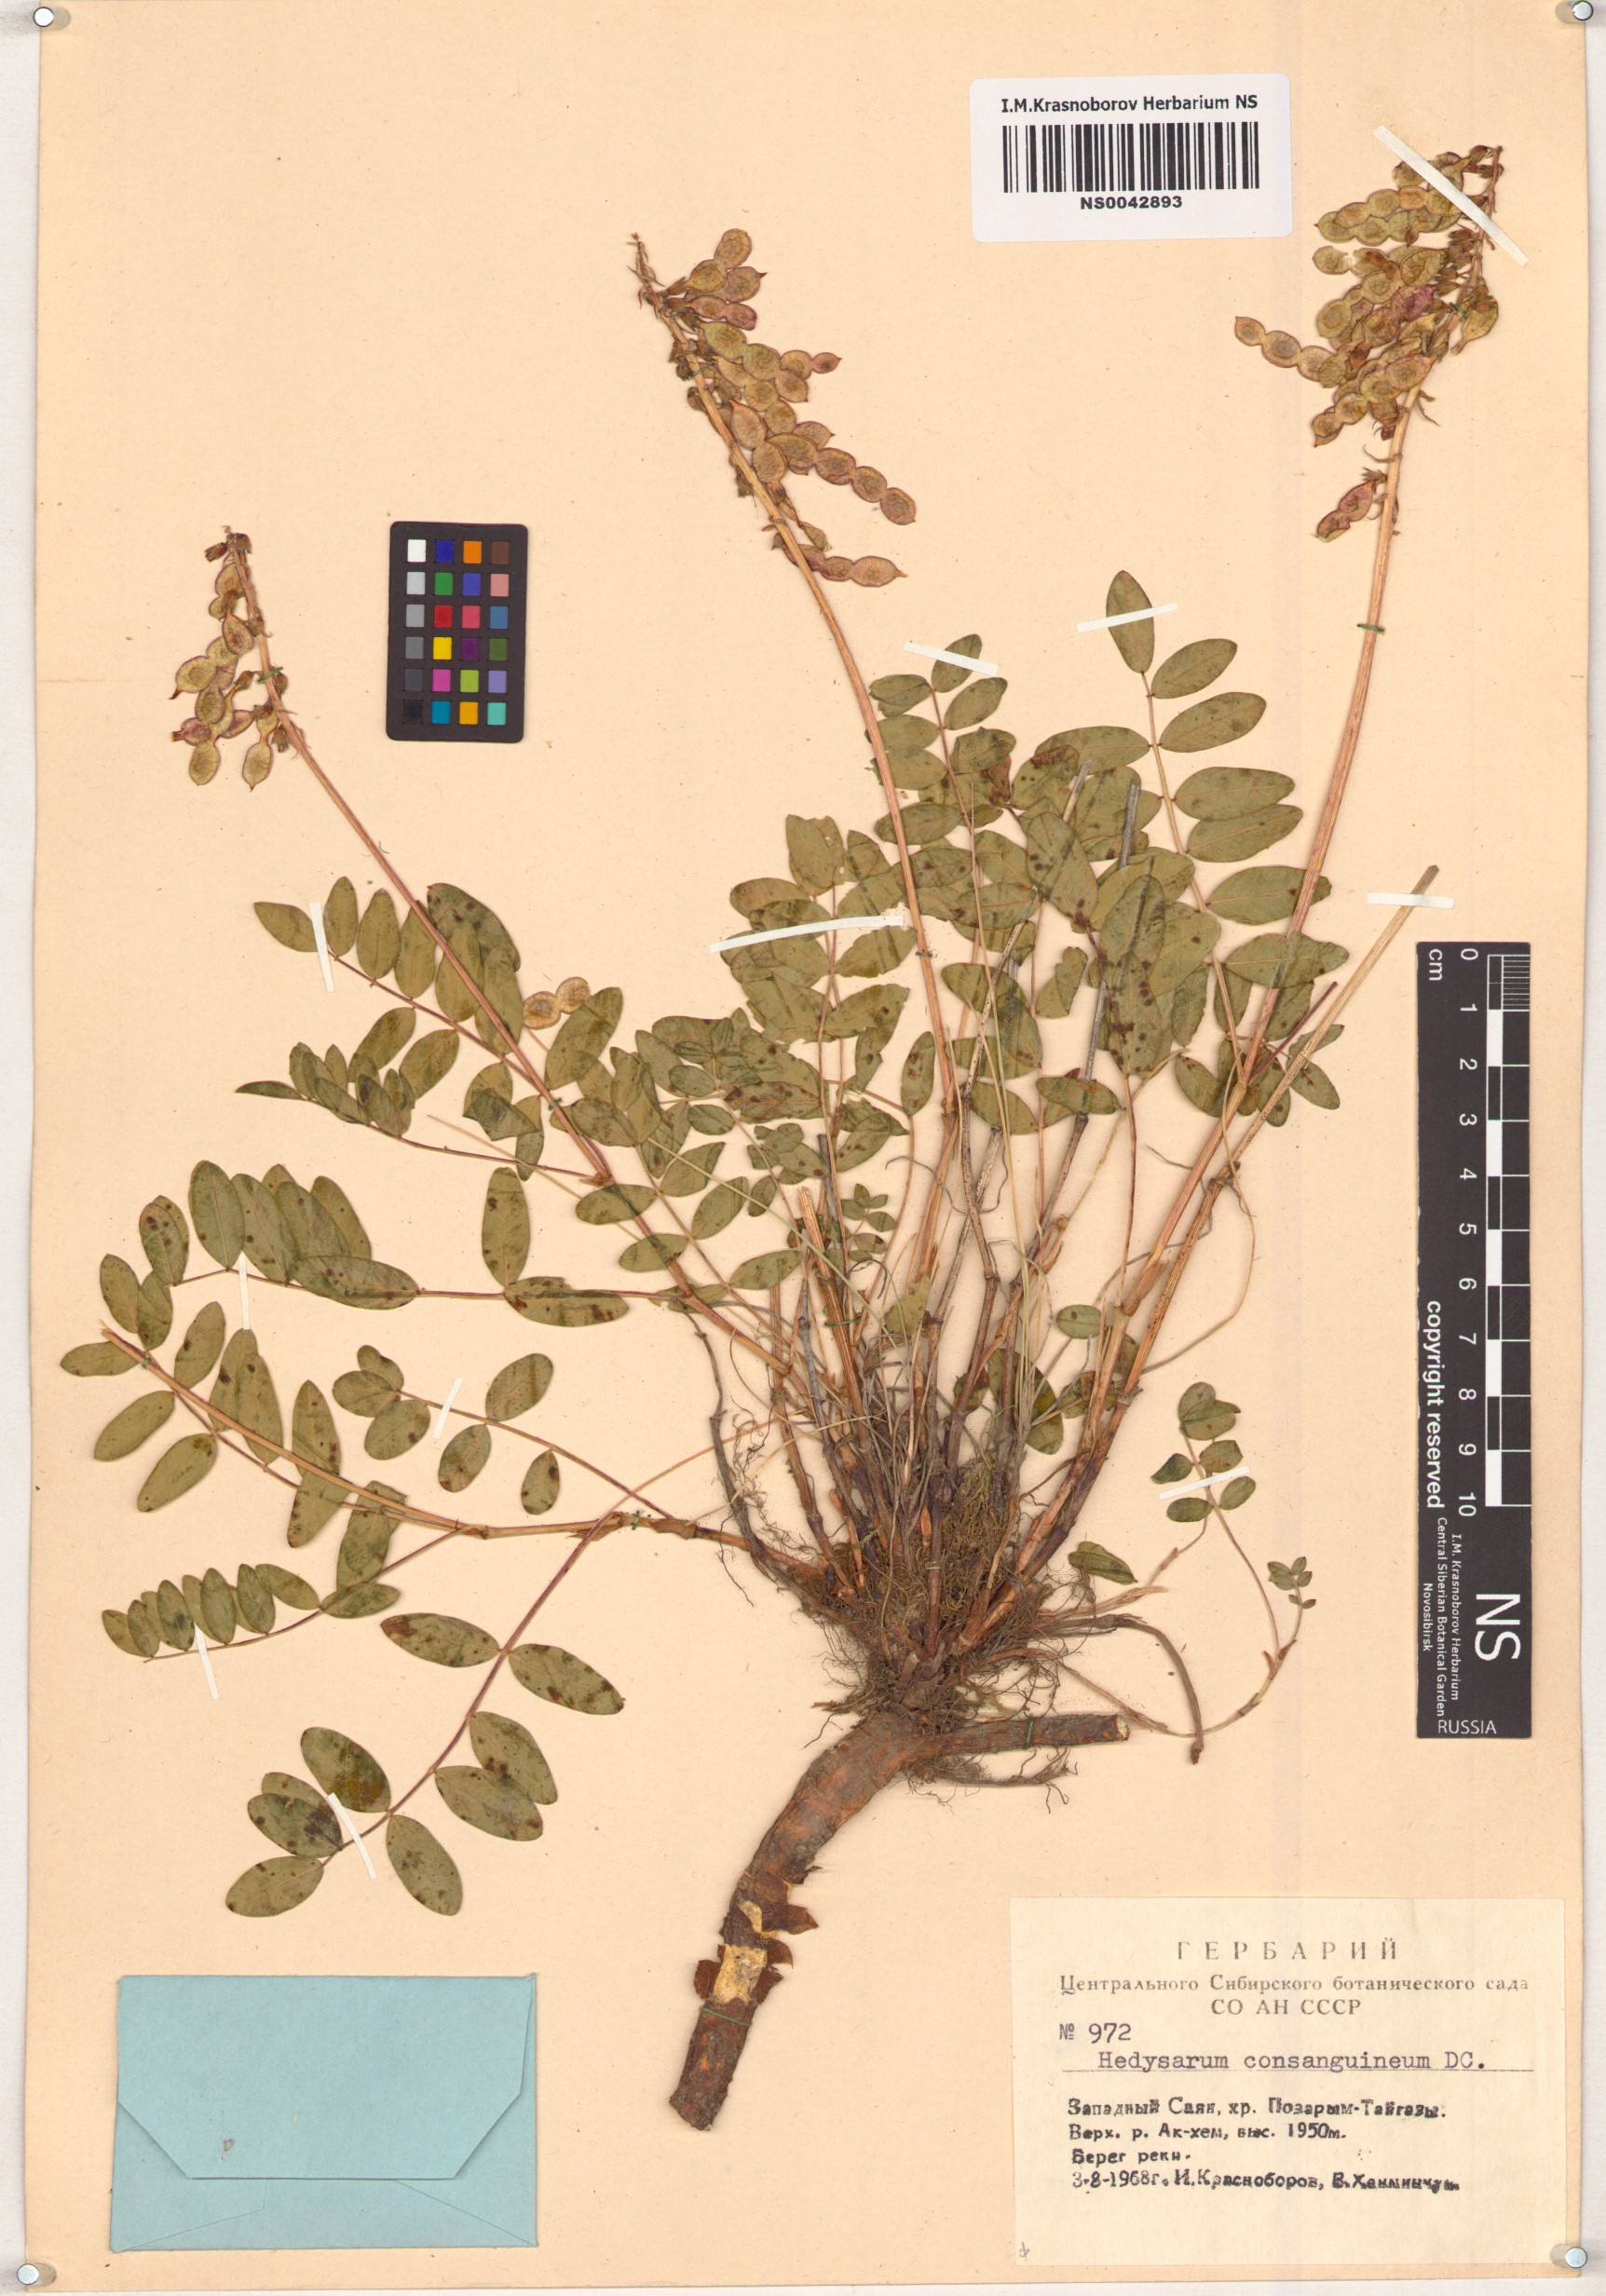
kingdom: Plantae
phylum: Tracheophyta
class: Magnoliopsida
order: Fabales
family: Fabaceae
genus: Hedysarum
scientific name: Hedysarum consanguineum
